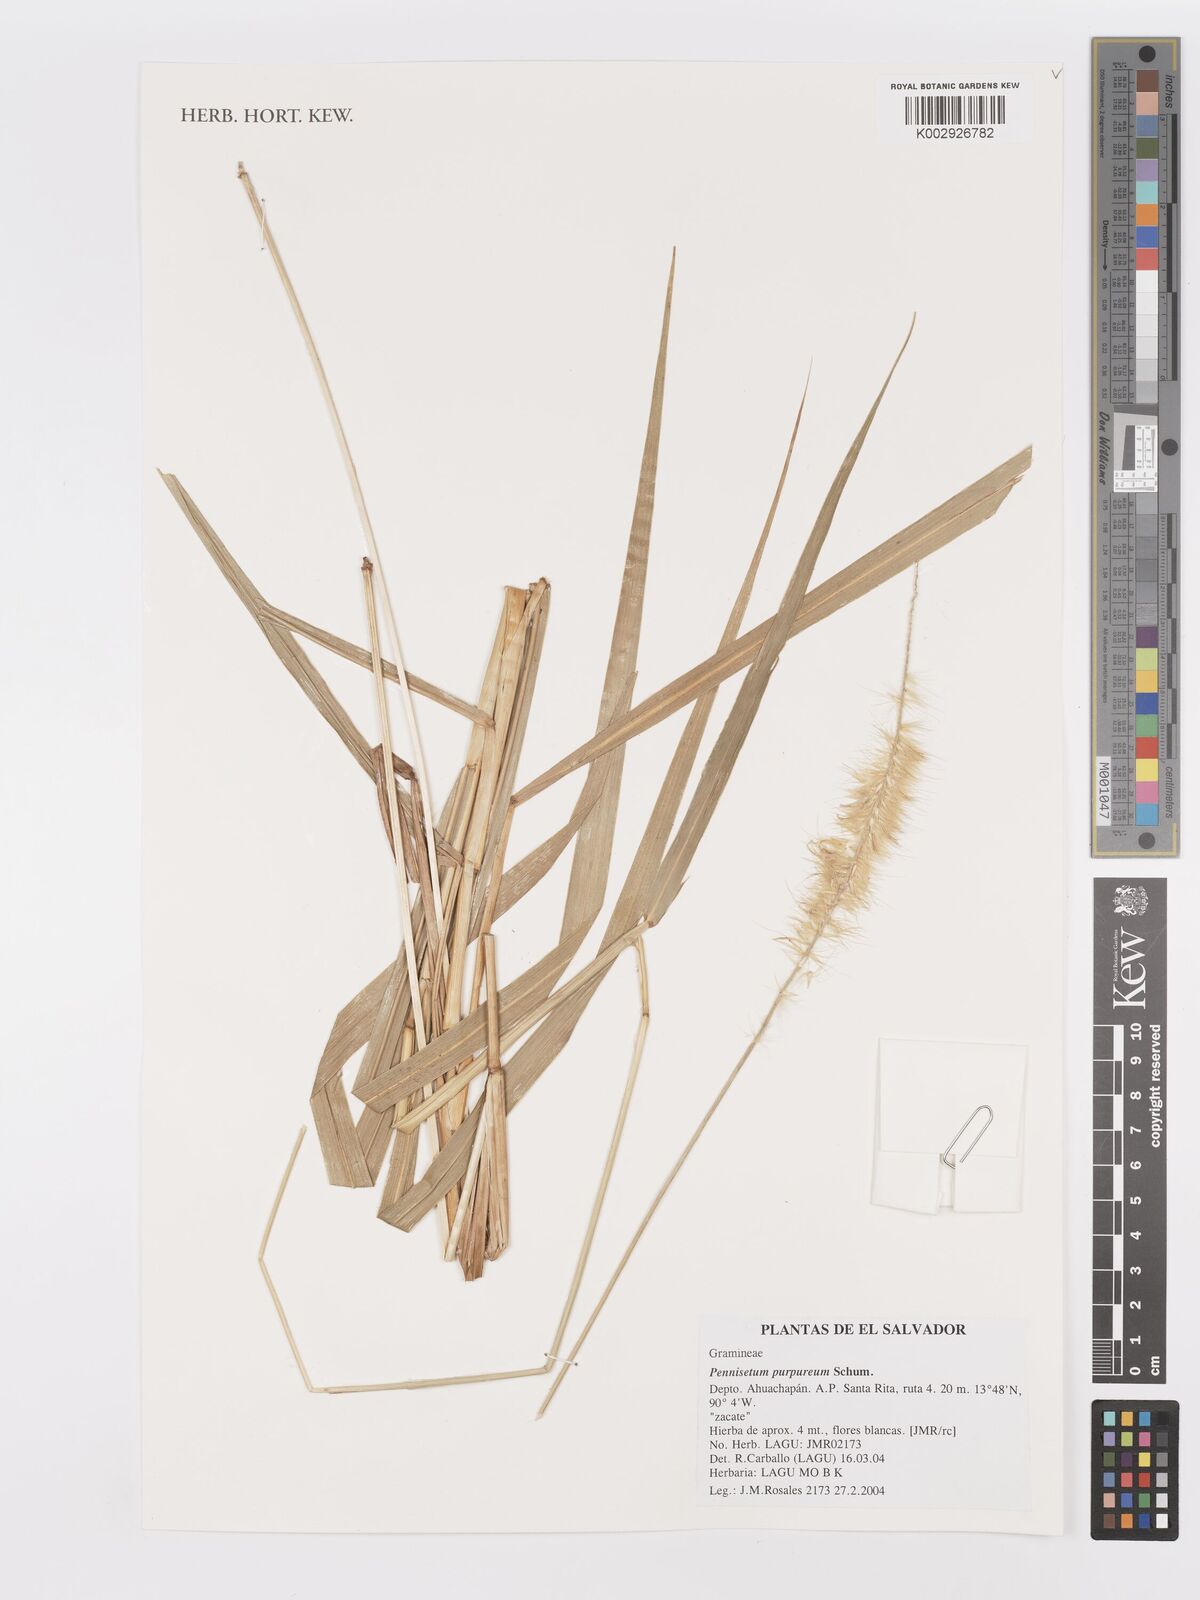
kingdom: Plantae
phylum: Tracheophyta
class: Liliopsida
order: Poales
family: Poaceae
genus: Cenchrus
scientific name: Cenchrus purpureus
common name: Elephant grass
